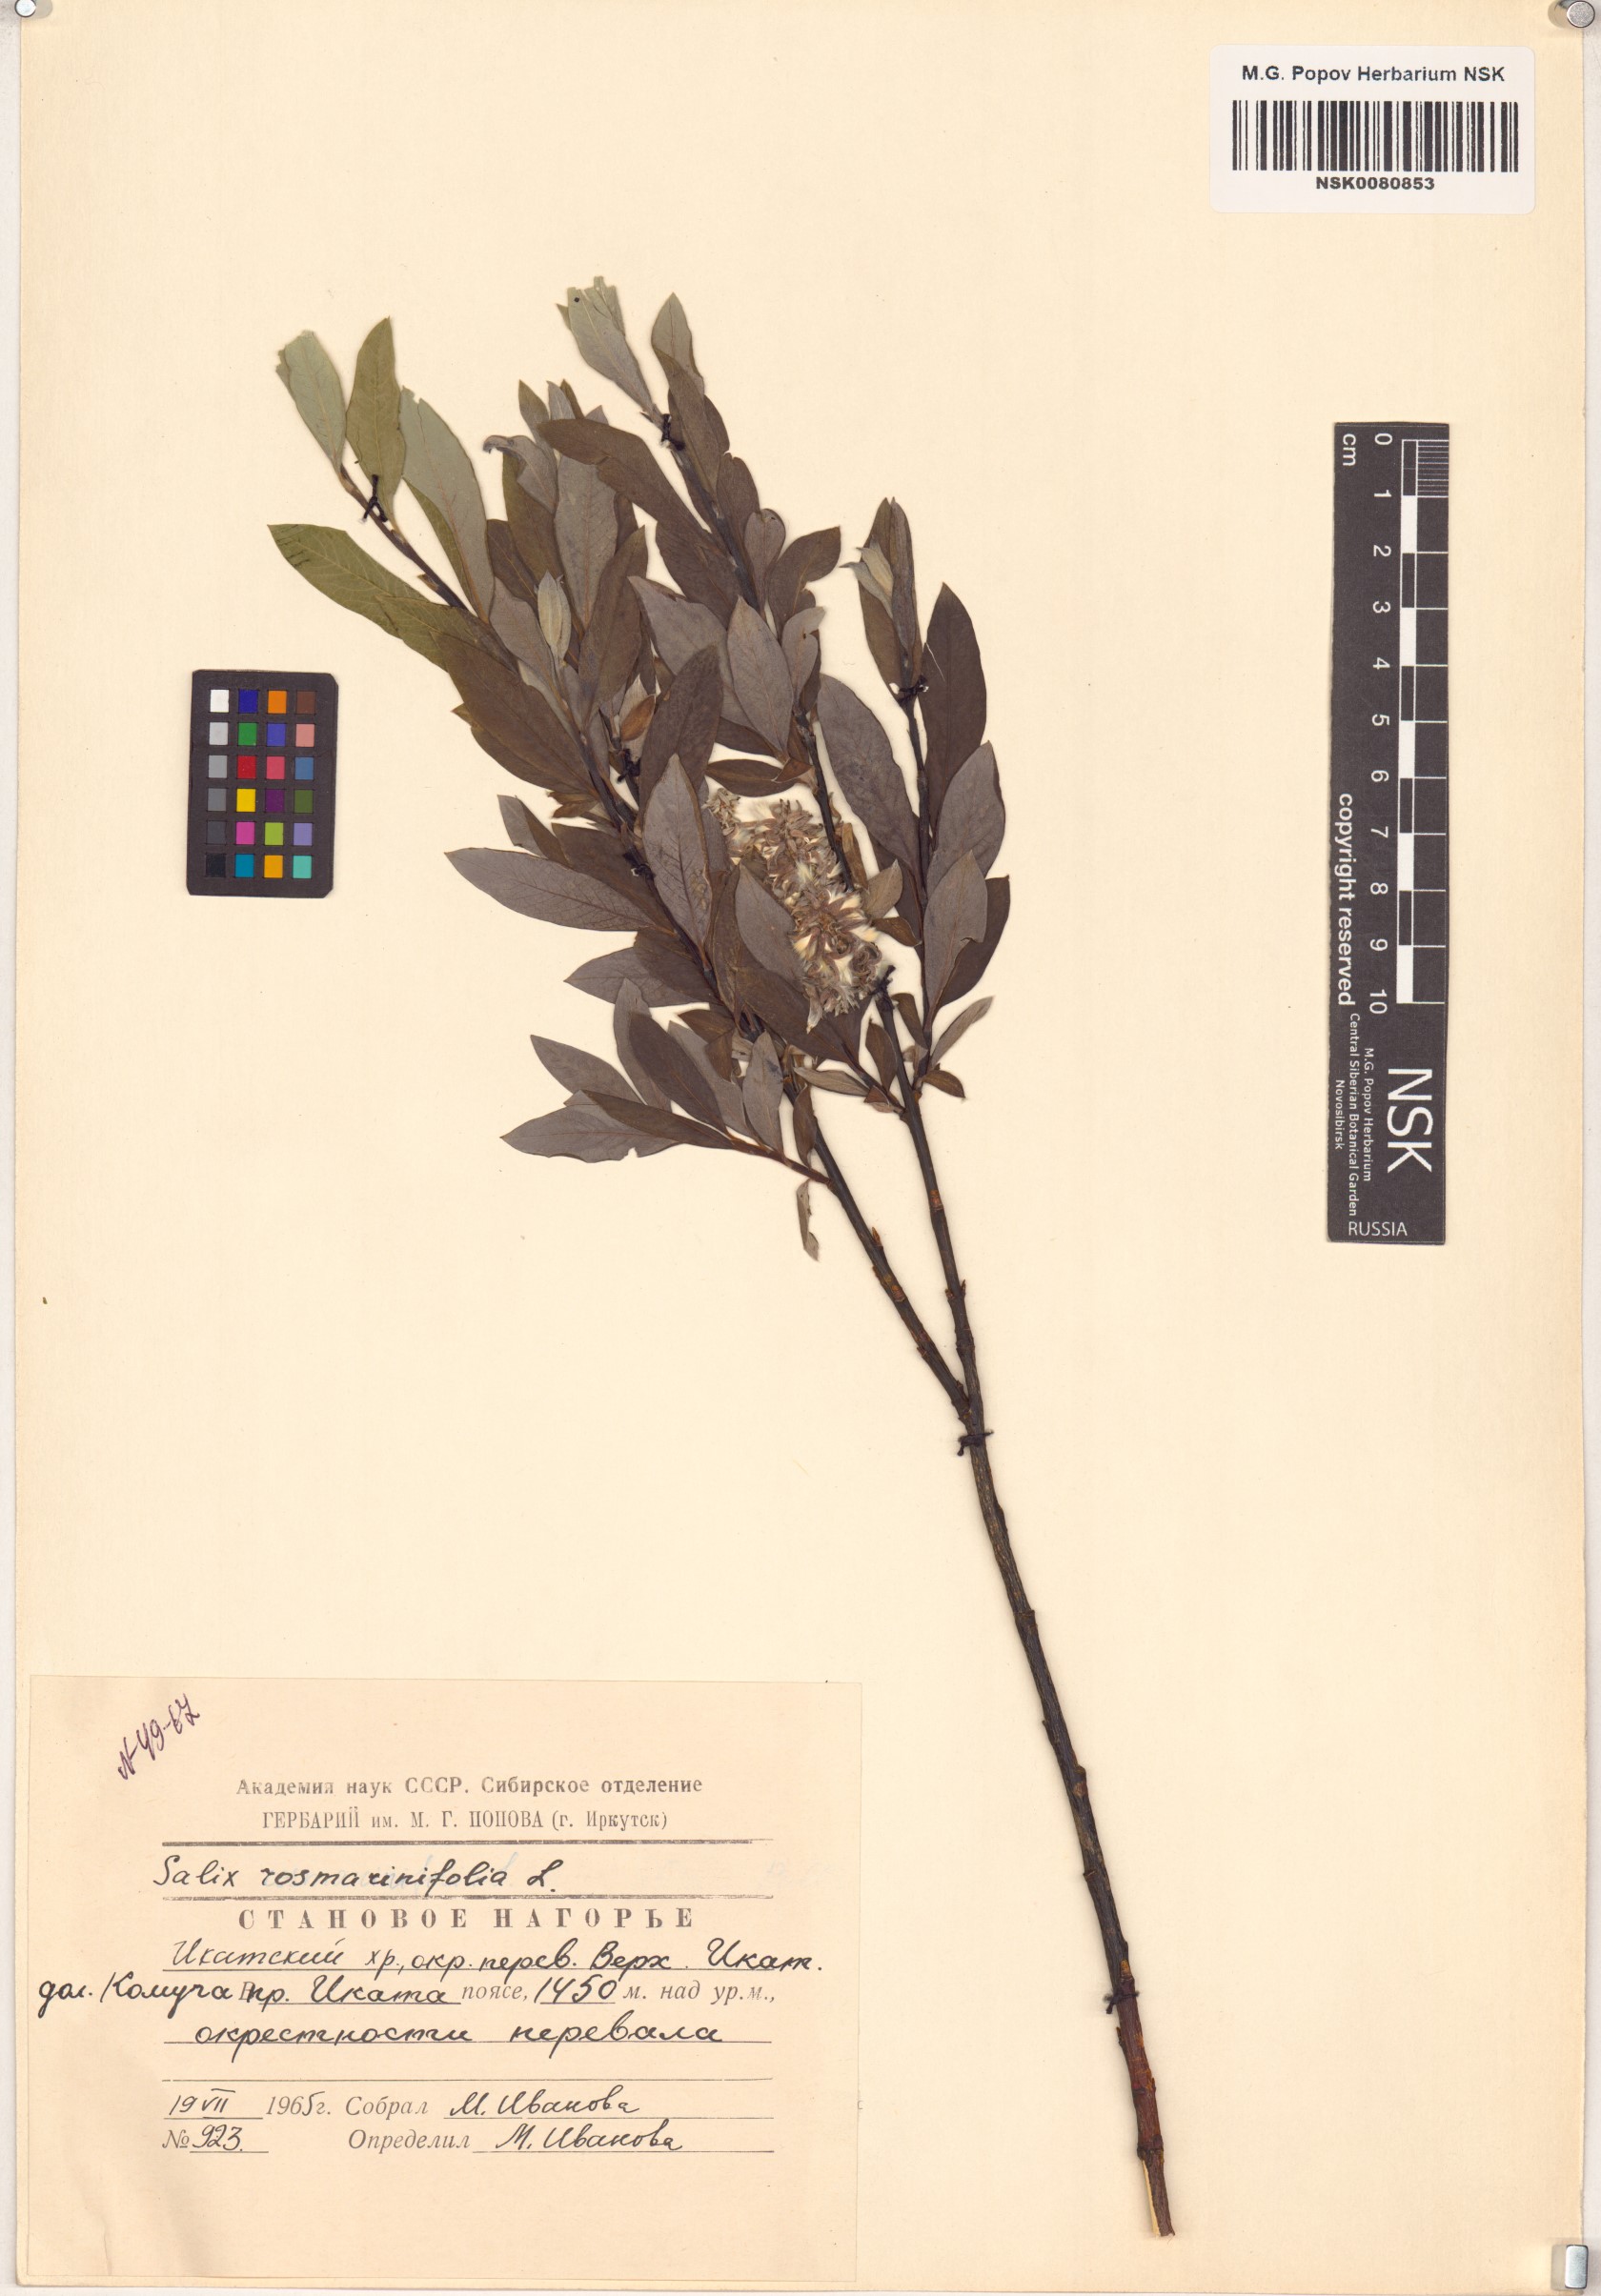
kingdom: Plantae
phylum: Tracheophyta
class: Magnoliopsida
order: Malpighiales
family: Salicaceae
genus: Salix
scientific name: Salix rosmarinifolia
